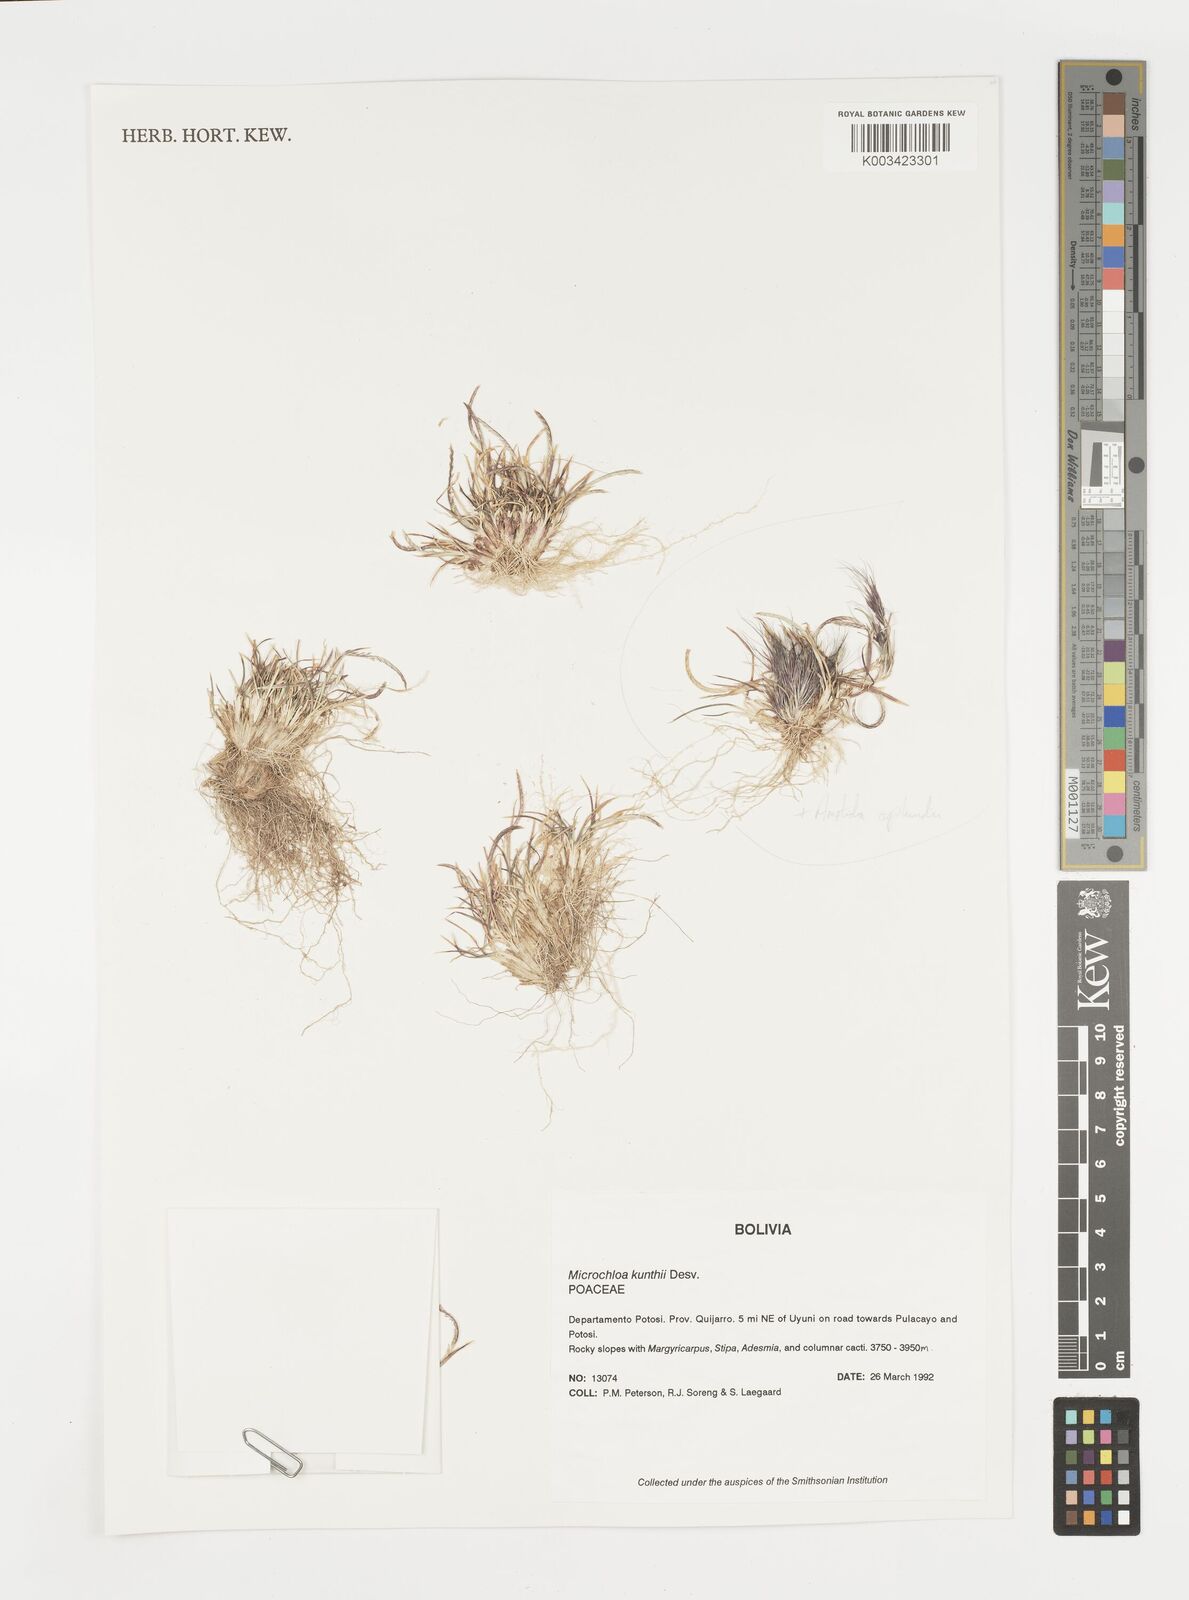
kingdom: Plantae
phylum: Tracheophyta
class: Liliopsida
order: Poales
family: Poaceae
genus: Microchloa
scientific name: Microchloa kunthii
